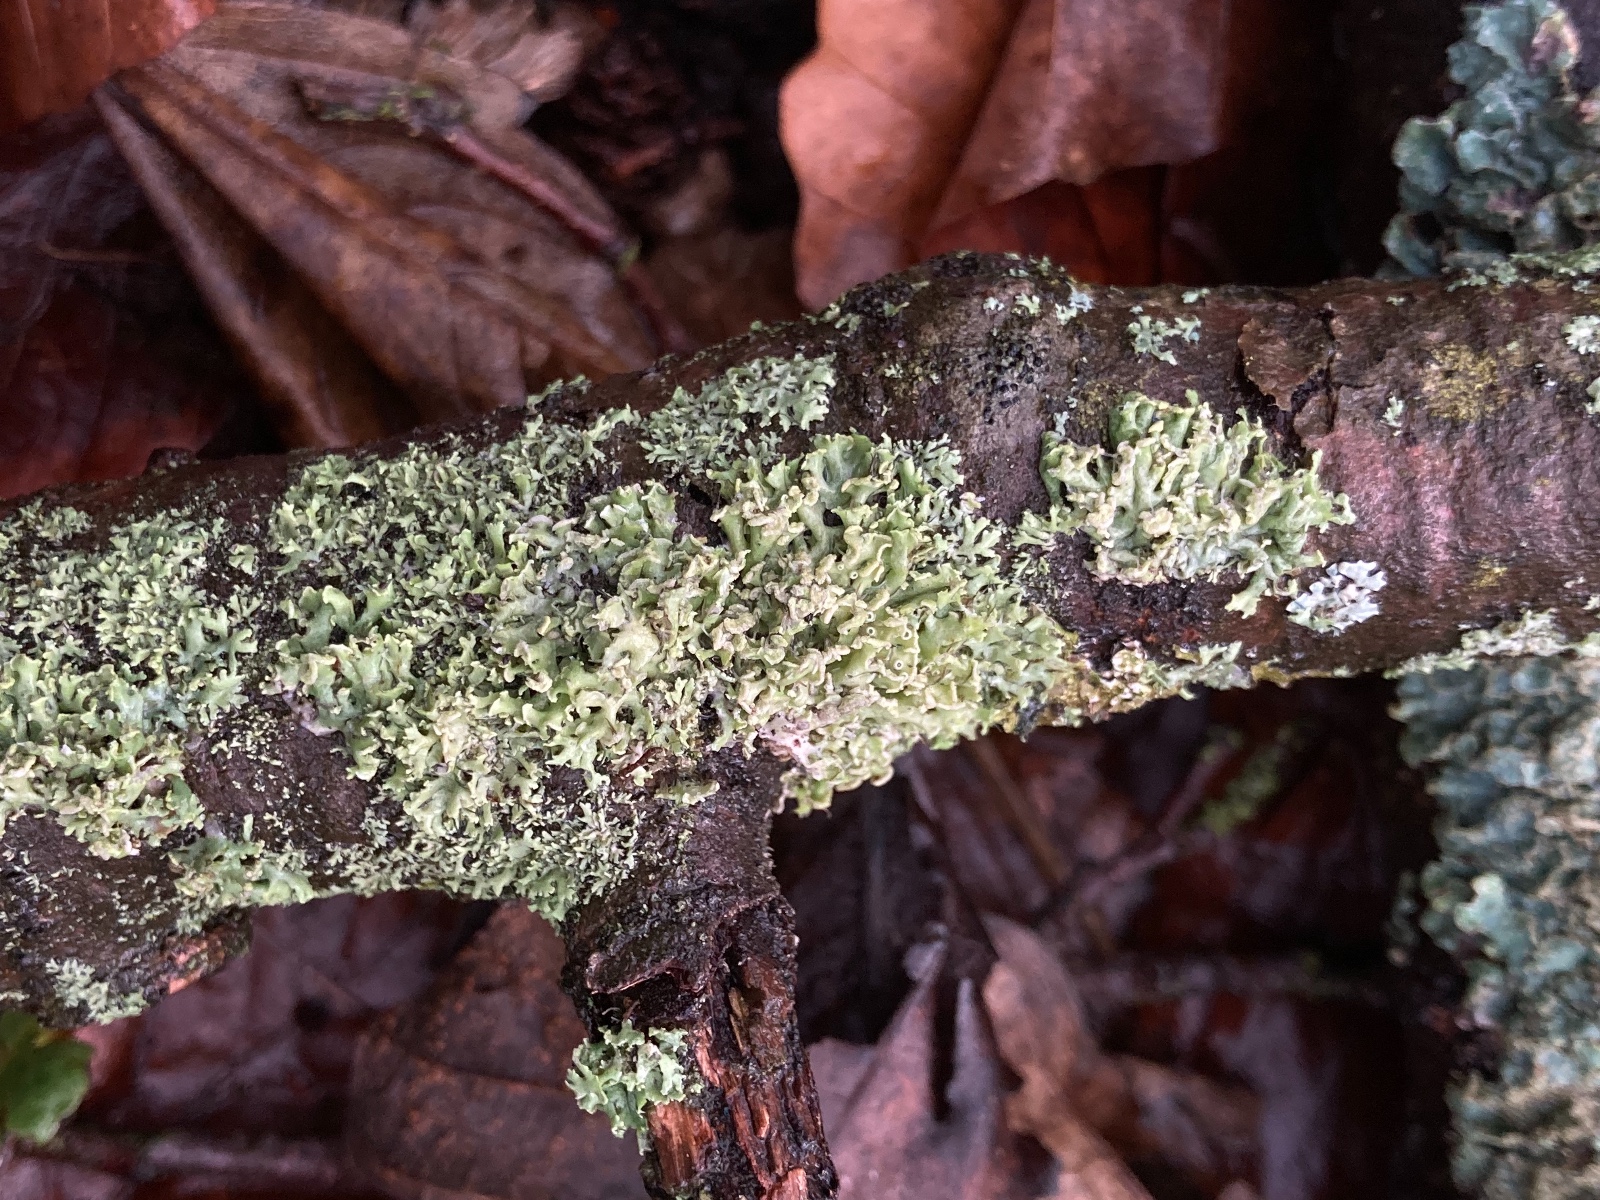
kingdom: Fungi
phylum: Ascomycota
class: Lecanoromycetes
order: Caliciales
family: Physciaceae
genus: Physcia
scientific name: Physcia tenella
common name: spæd rosetlav
